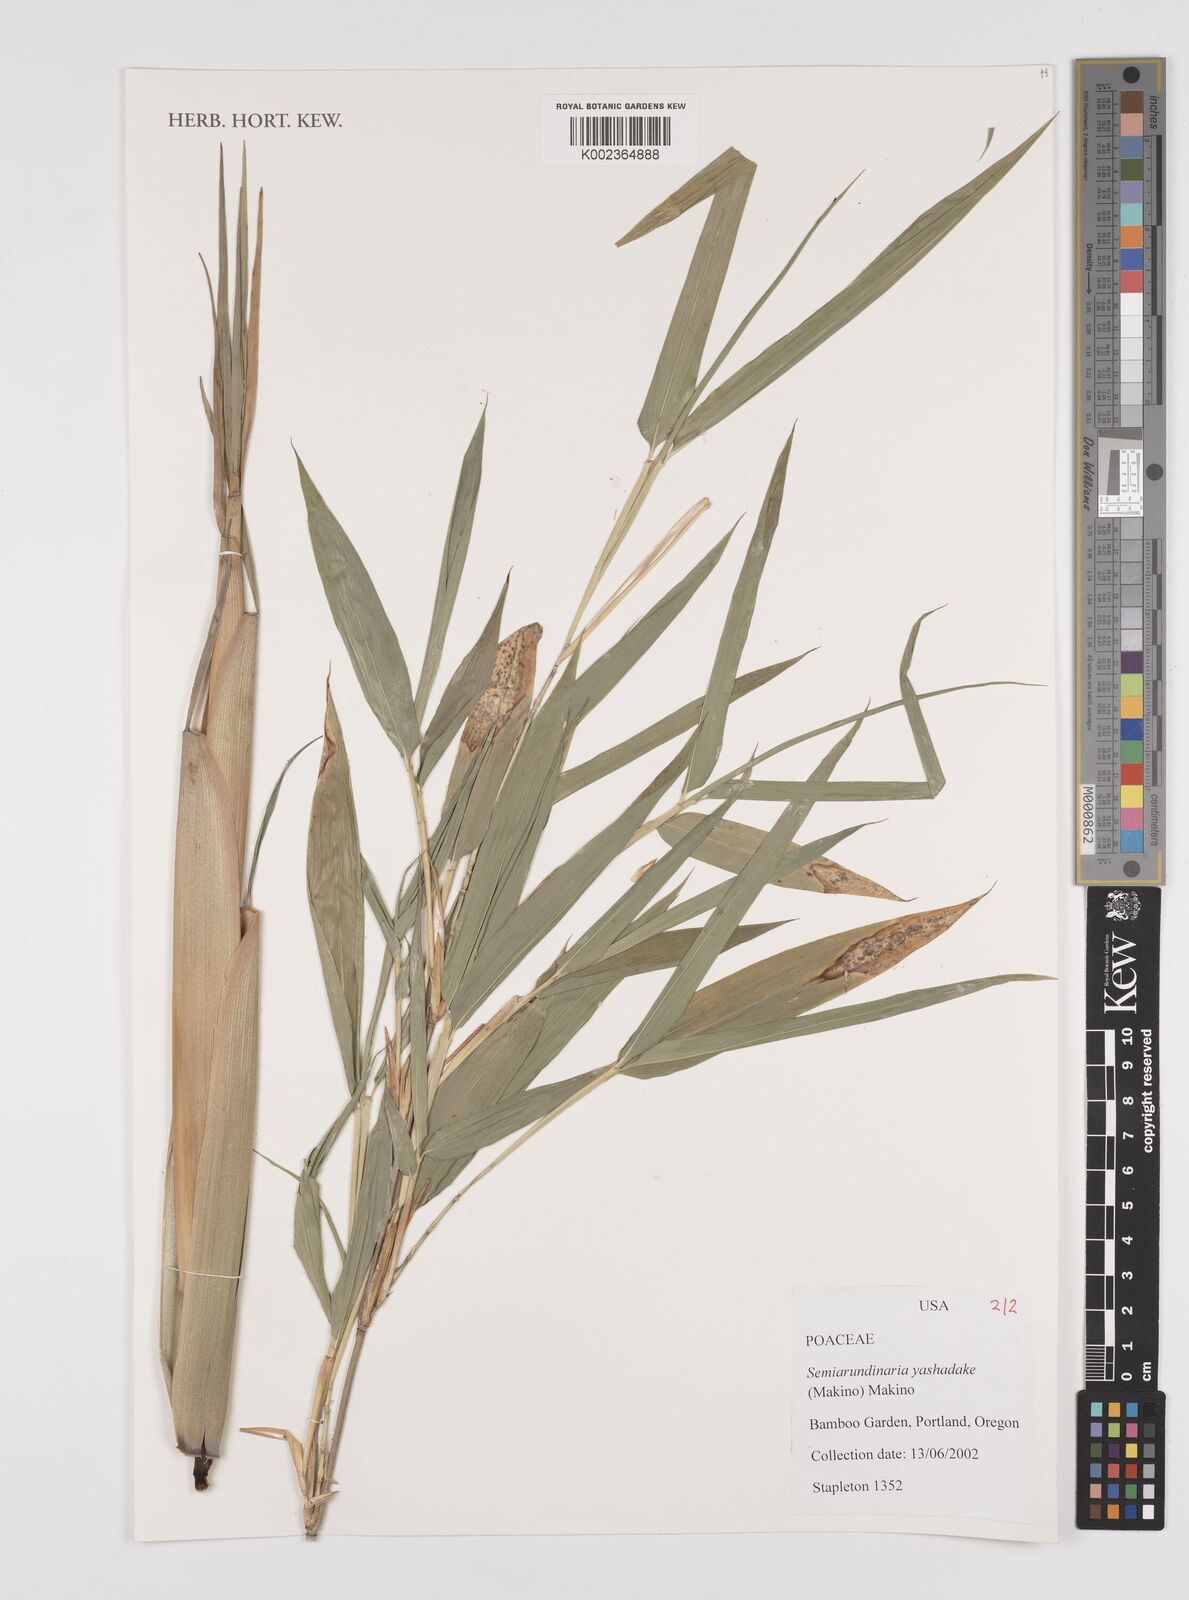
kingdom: Plantae
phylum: Tracheophyta
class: Liliopsida
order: Poales
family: Poaceae
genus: Semiarundinaria
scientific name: Semiarundinaria yashadake
